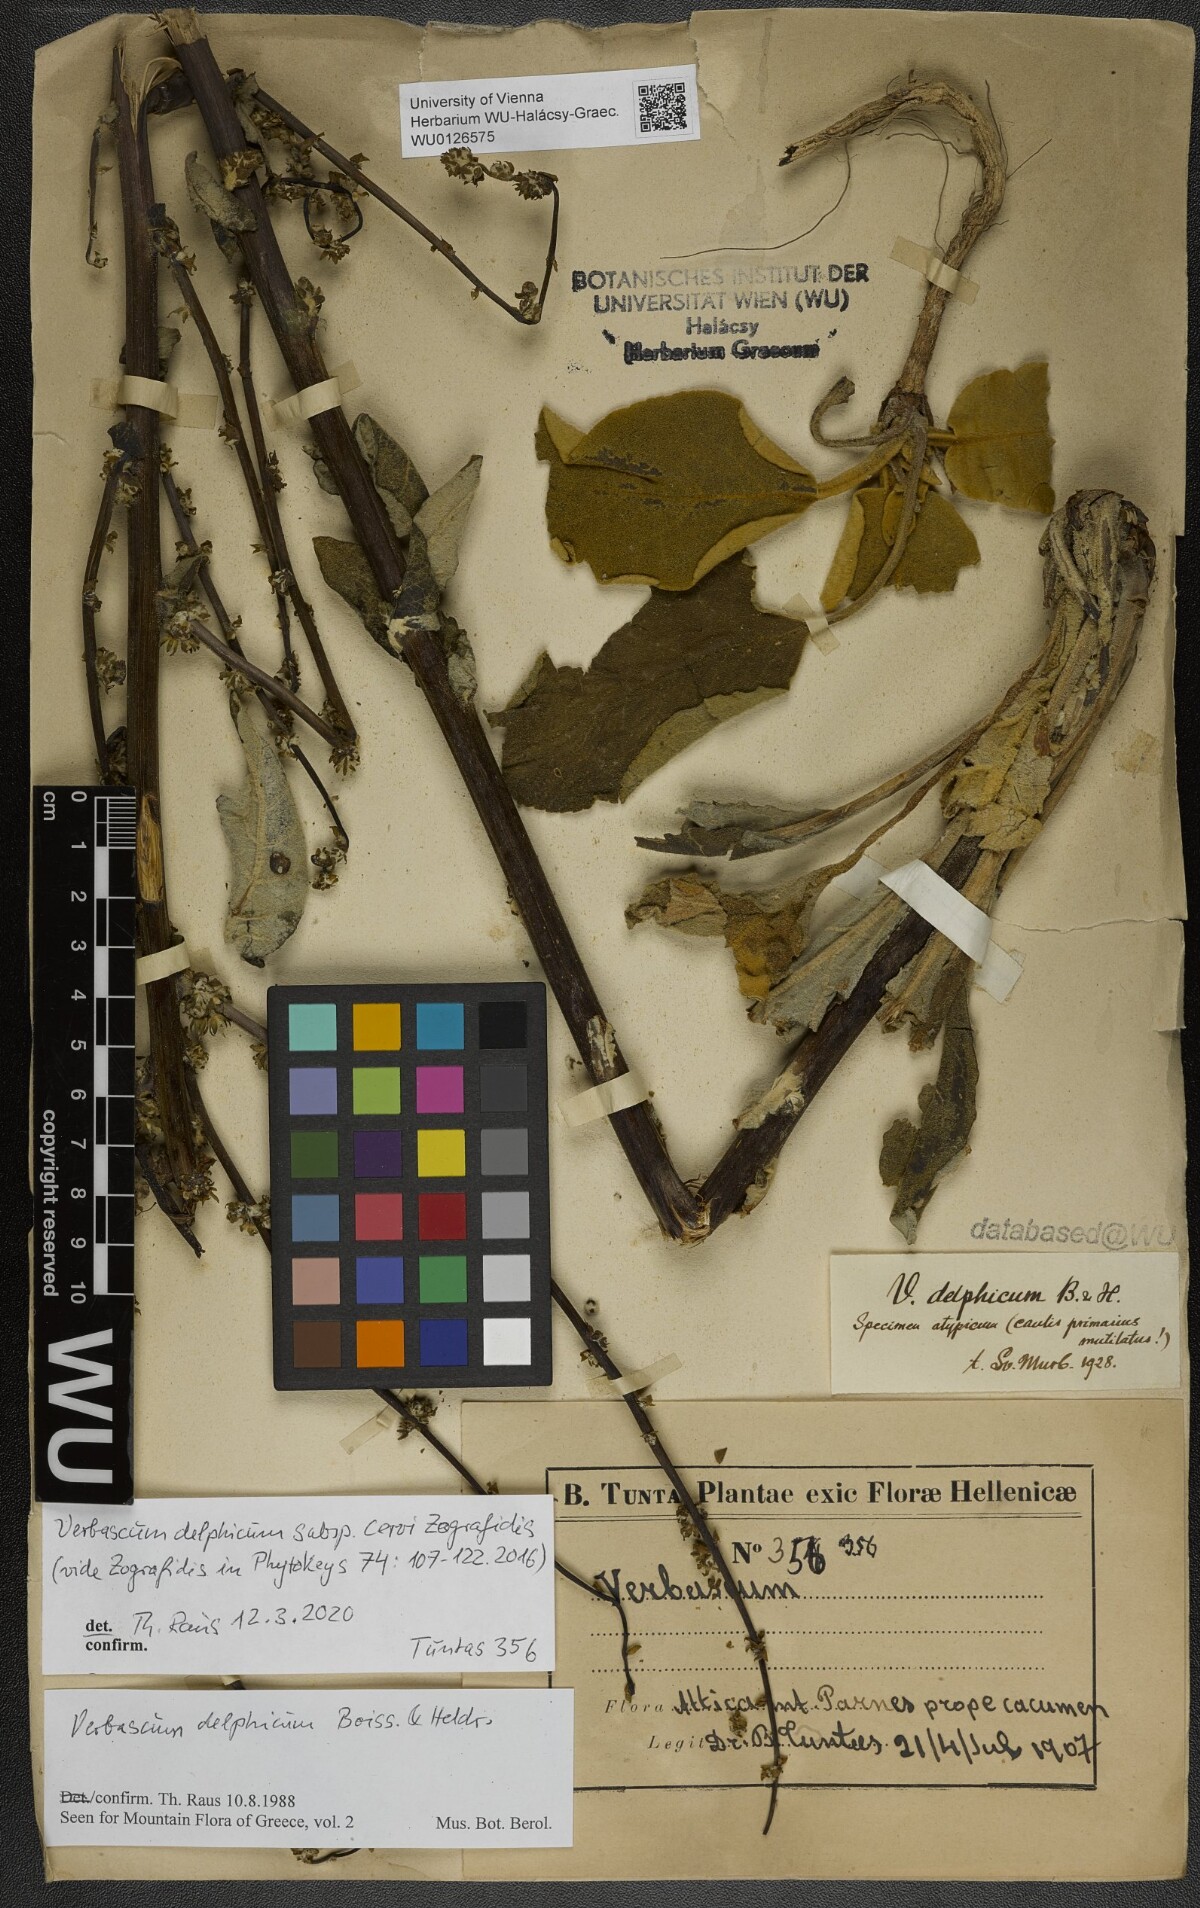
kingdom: Plantae
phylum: Tracheophyta
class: Magnoliopsida
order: Lamiales
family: Scrophulariaceae
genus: Verbascum
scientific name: Verbascum delphicum
